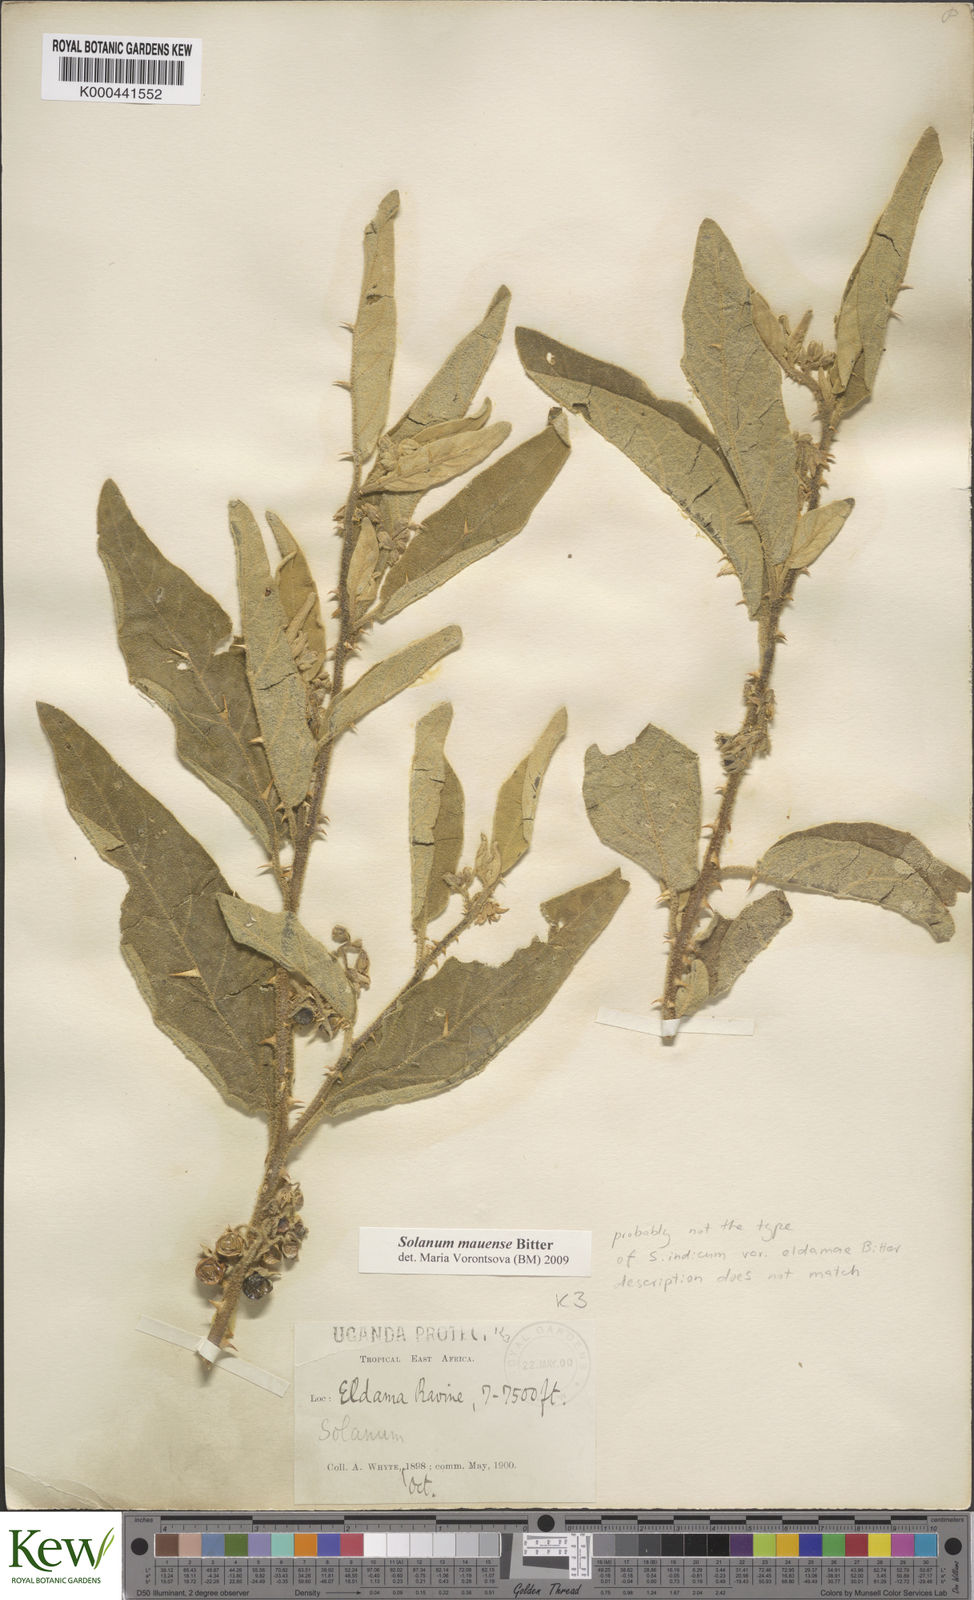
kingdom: Plantae
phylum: Tracheophyta
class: Magnoliopsida
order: Solanales
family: Solanaceae
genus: Solanum
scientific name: Solanum mauense
